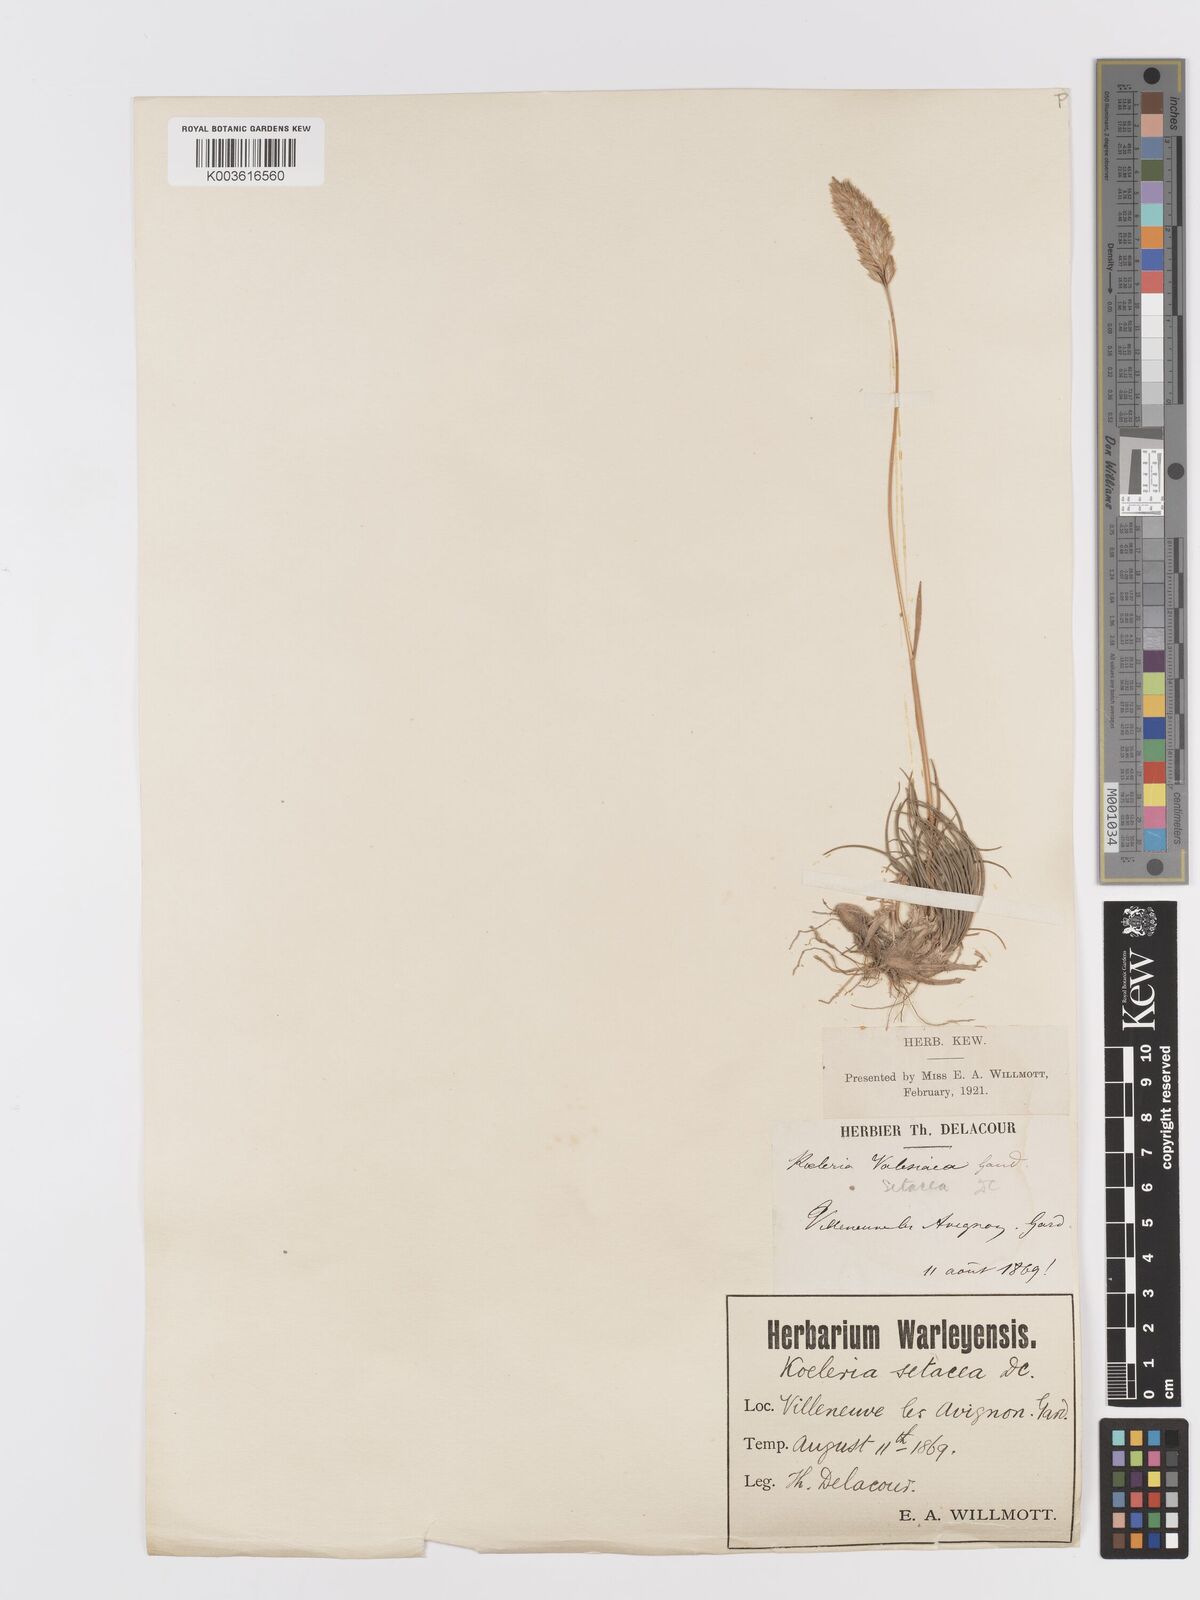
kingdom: Plantae
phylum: Tracheophyta
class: Liliopsida
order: Poales
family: Poaceae
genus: Koeleria
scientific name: Koeleria vallesiana
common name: Somerset hair-grass
